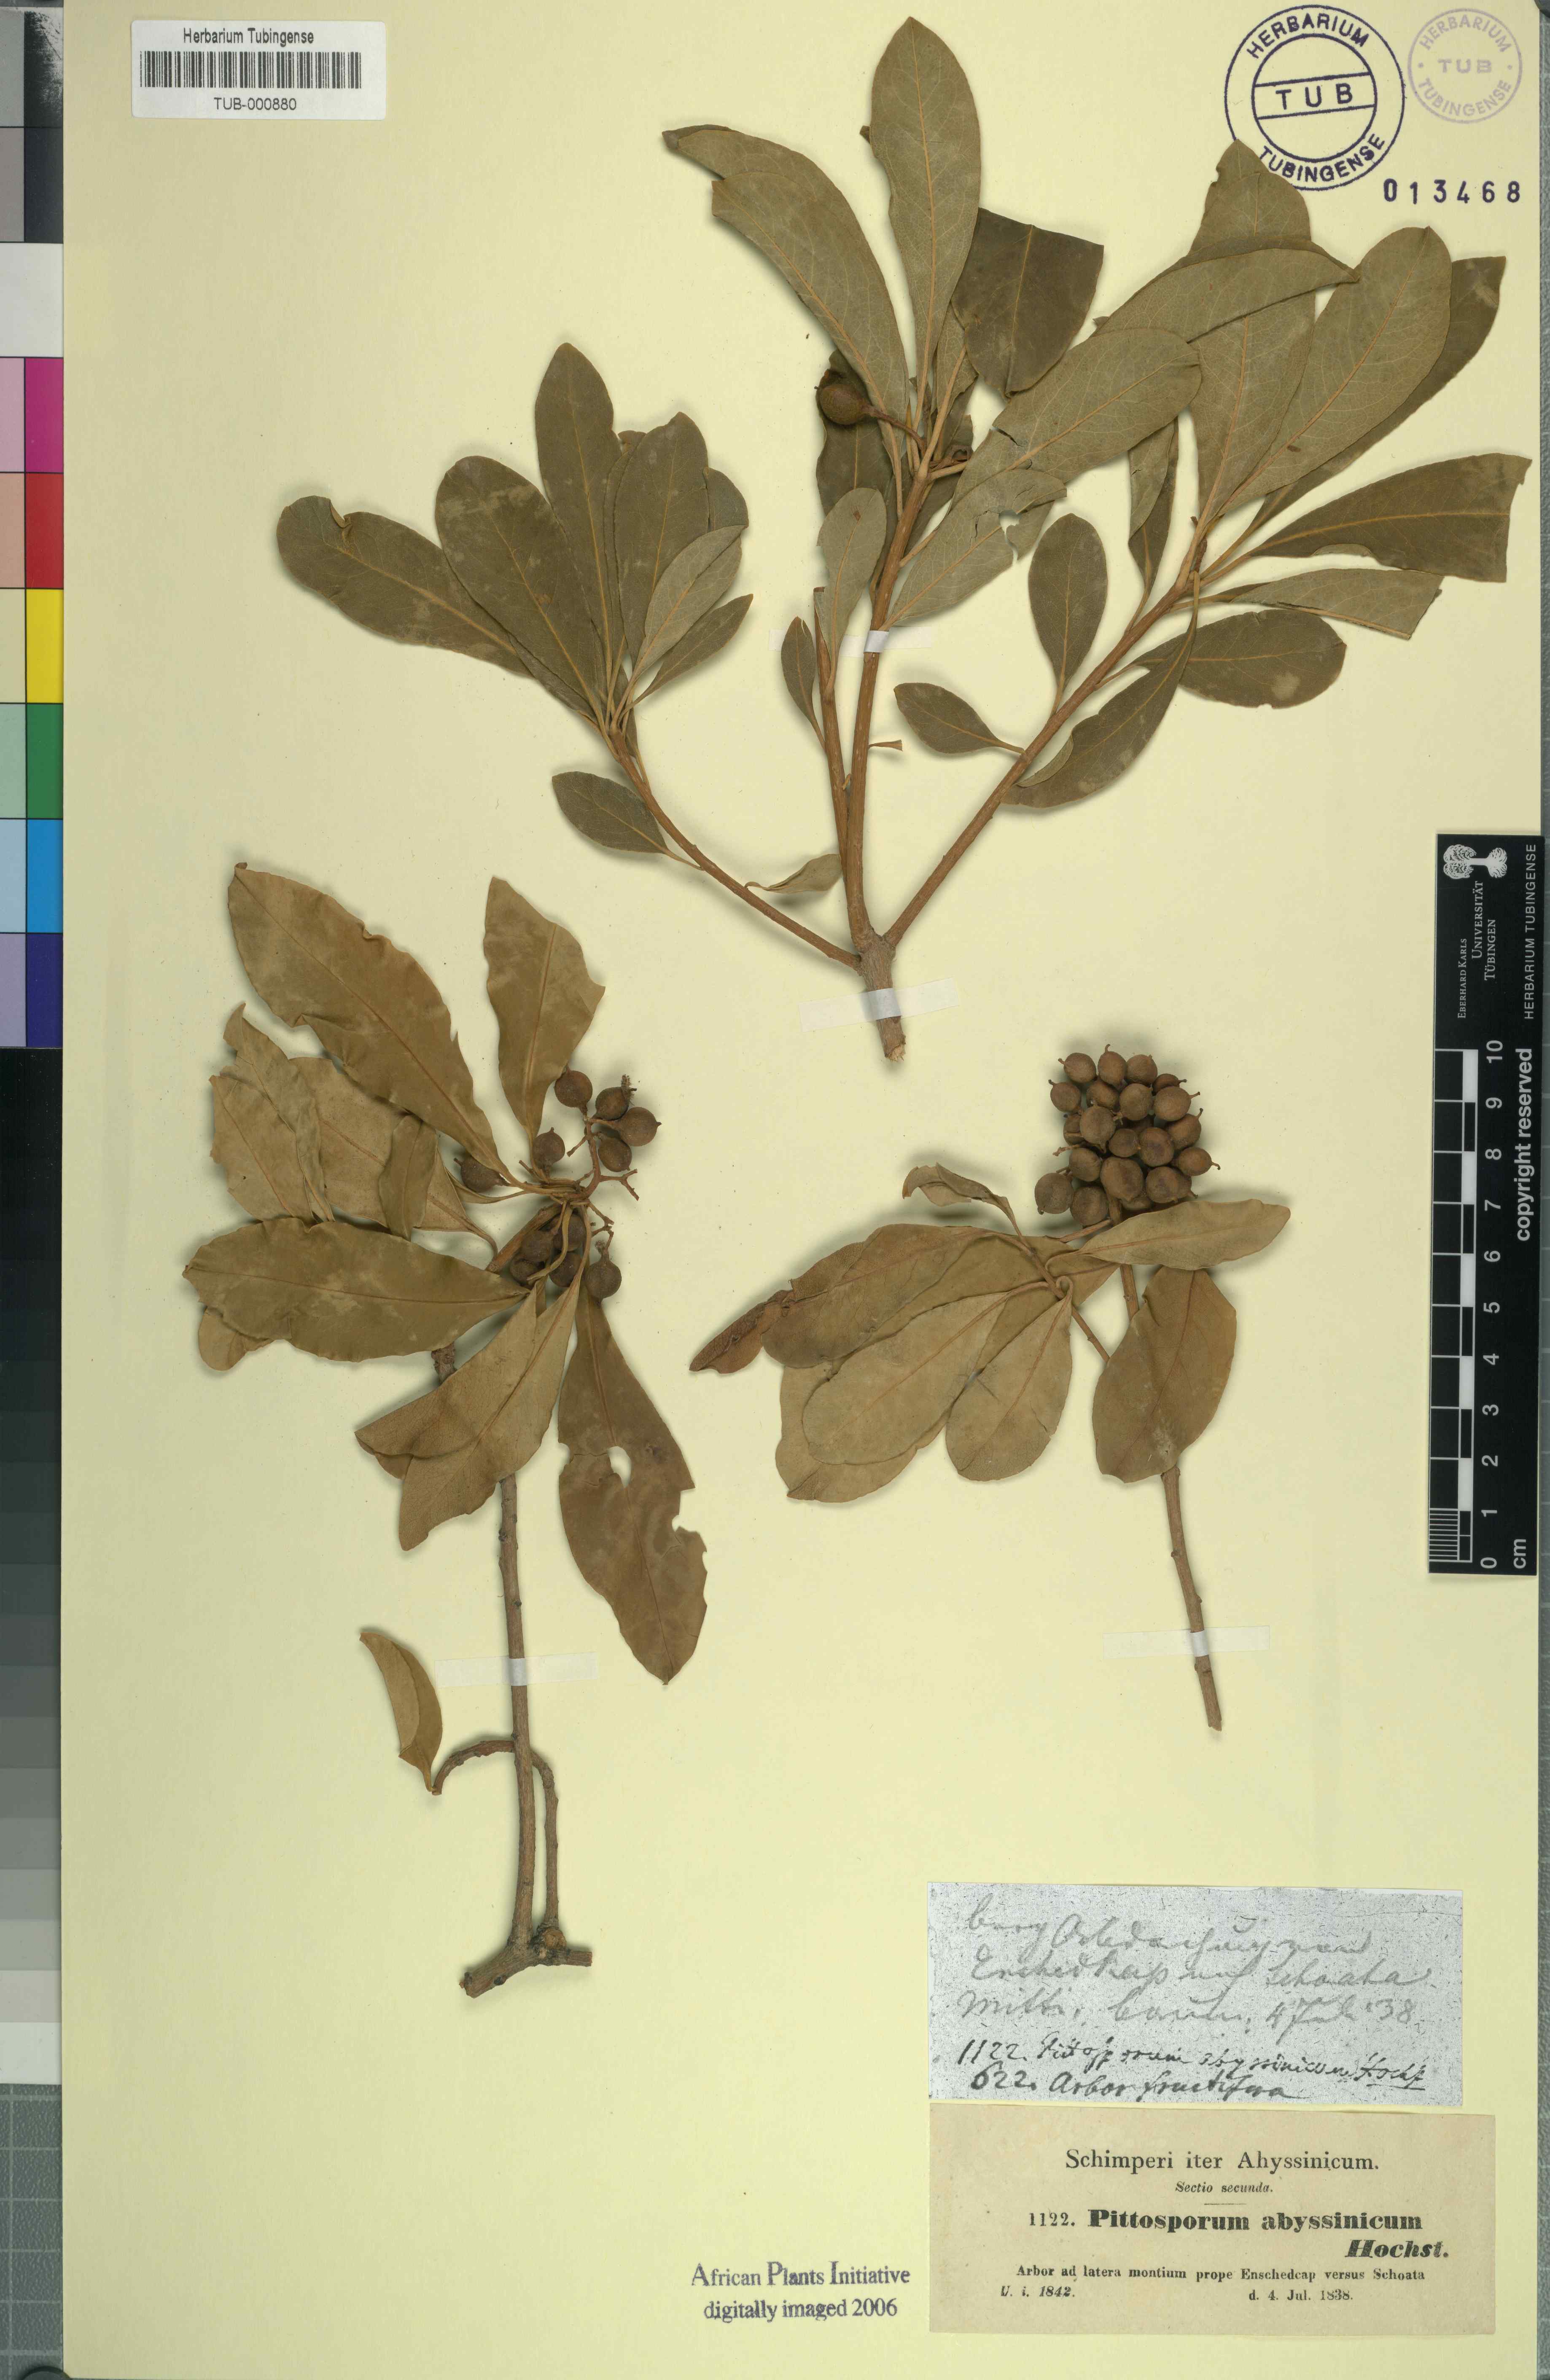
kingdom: Plantae
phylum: Tracheophyta
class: Magnoliopsida
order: Apiales
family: Pittosporaceae
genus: Pittosporum
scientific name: Pittosporum abyssinicum
